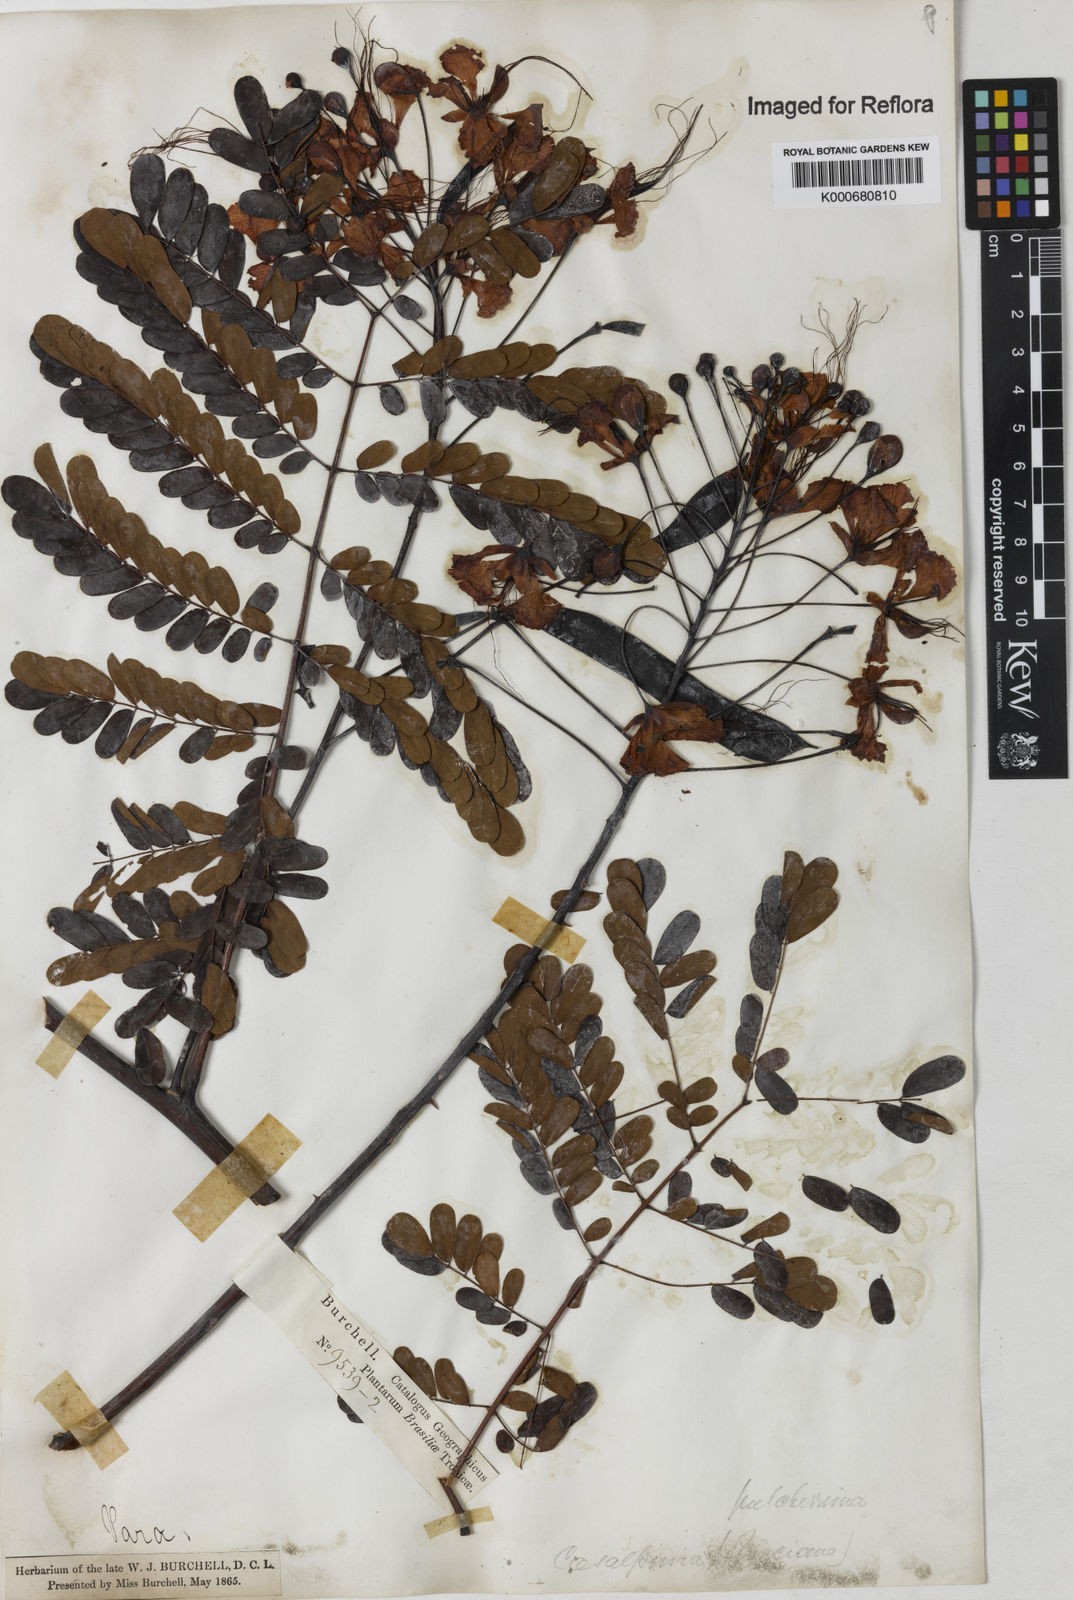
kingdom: Plantae
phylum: Tracheophyta
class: Magnoliopsida
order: Fabales
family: Fabaceae
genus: Caesalpinia
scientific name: Caesalpinia pulcherrima
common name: Pride-of-barbados
